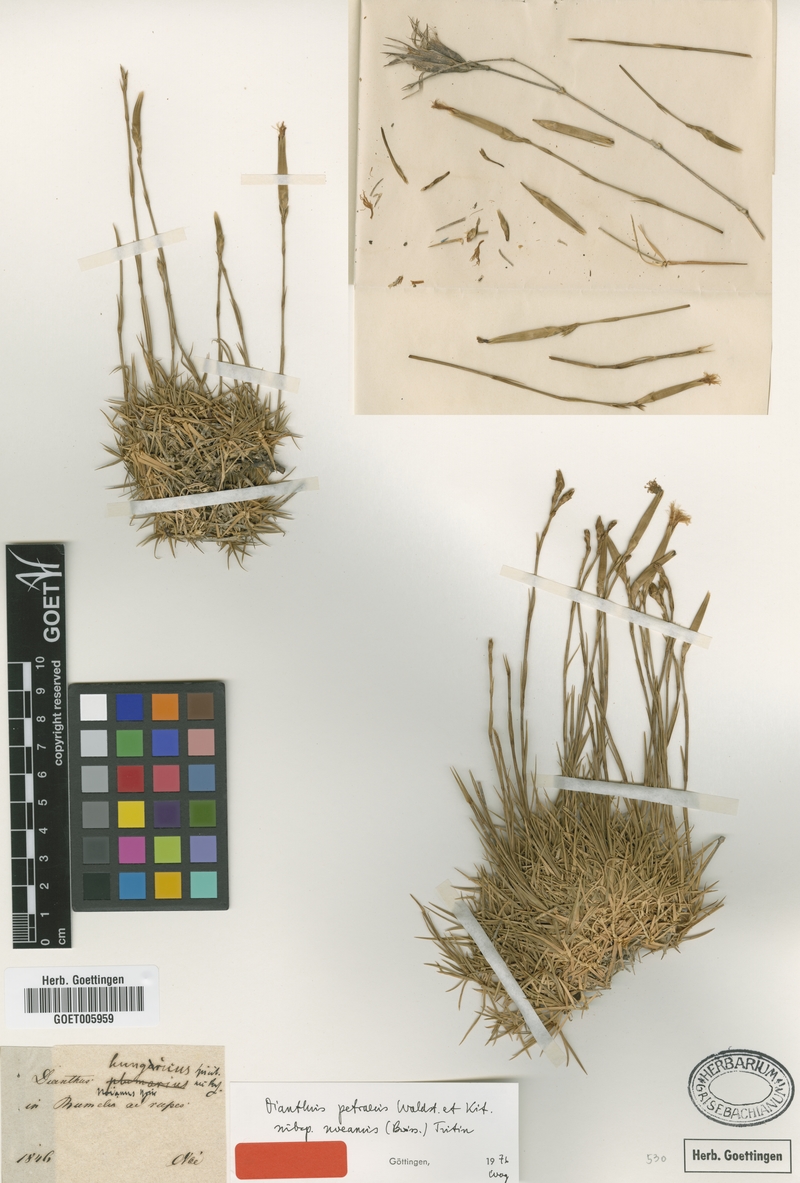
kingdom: Plantae
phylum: Tracheophyta
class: Magnoliopsida
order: Caryophyllales
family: Caryophyllaceae
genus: Dianthus
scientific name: Dianthus noeanus
